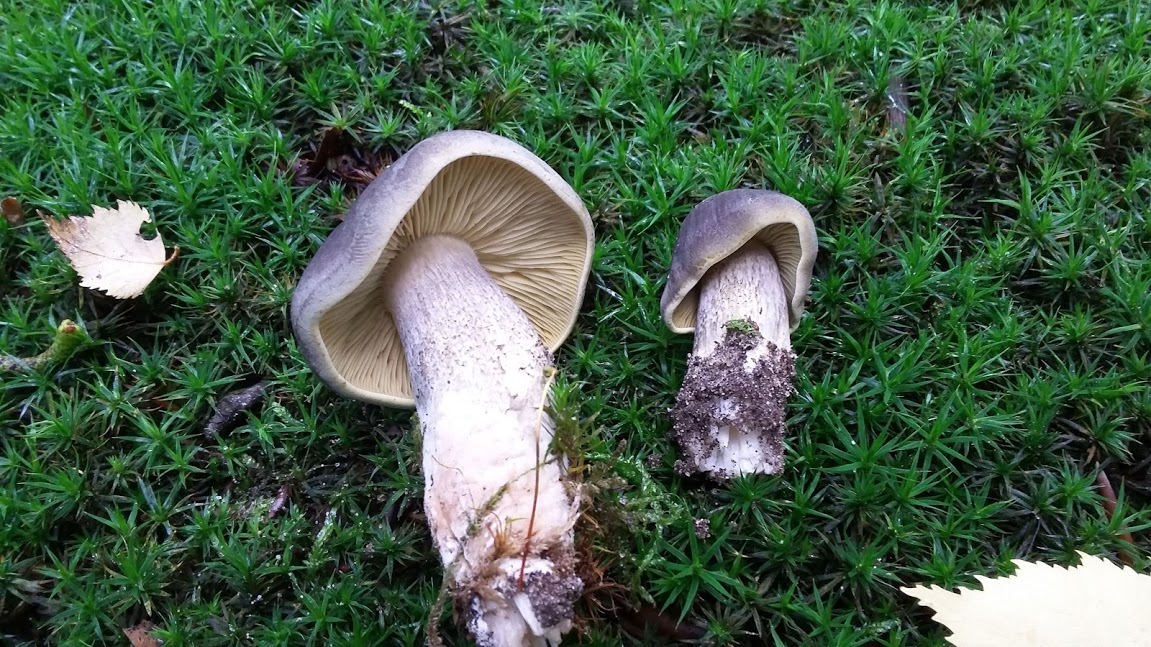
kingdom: Fungi
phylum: Basidiomycota
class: Agaricomycetes
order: Agaricales
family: Tricholomataceae
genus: Tricholoma
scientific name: Tricholoma saponaceum
